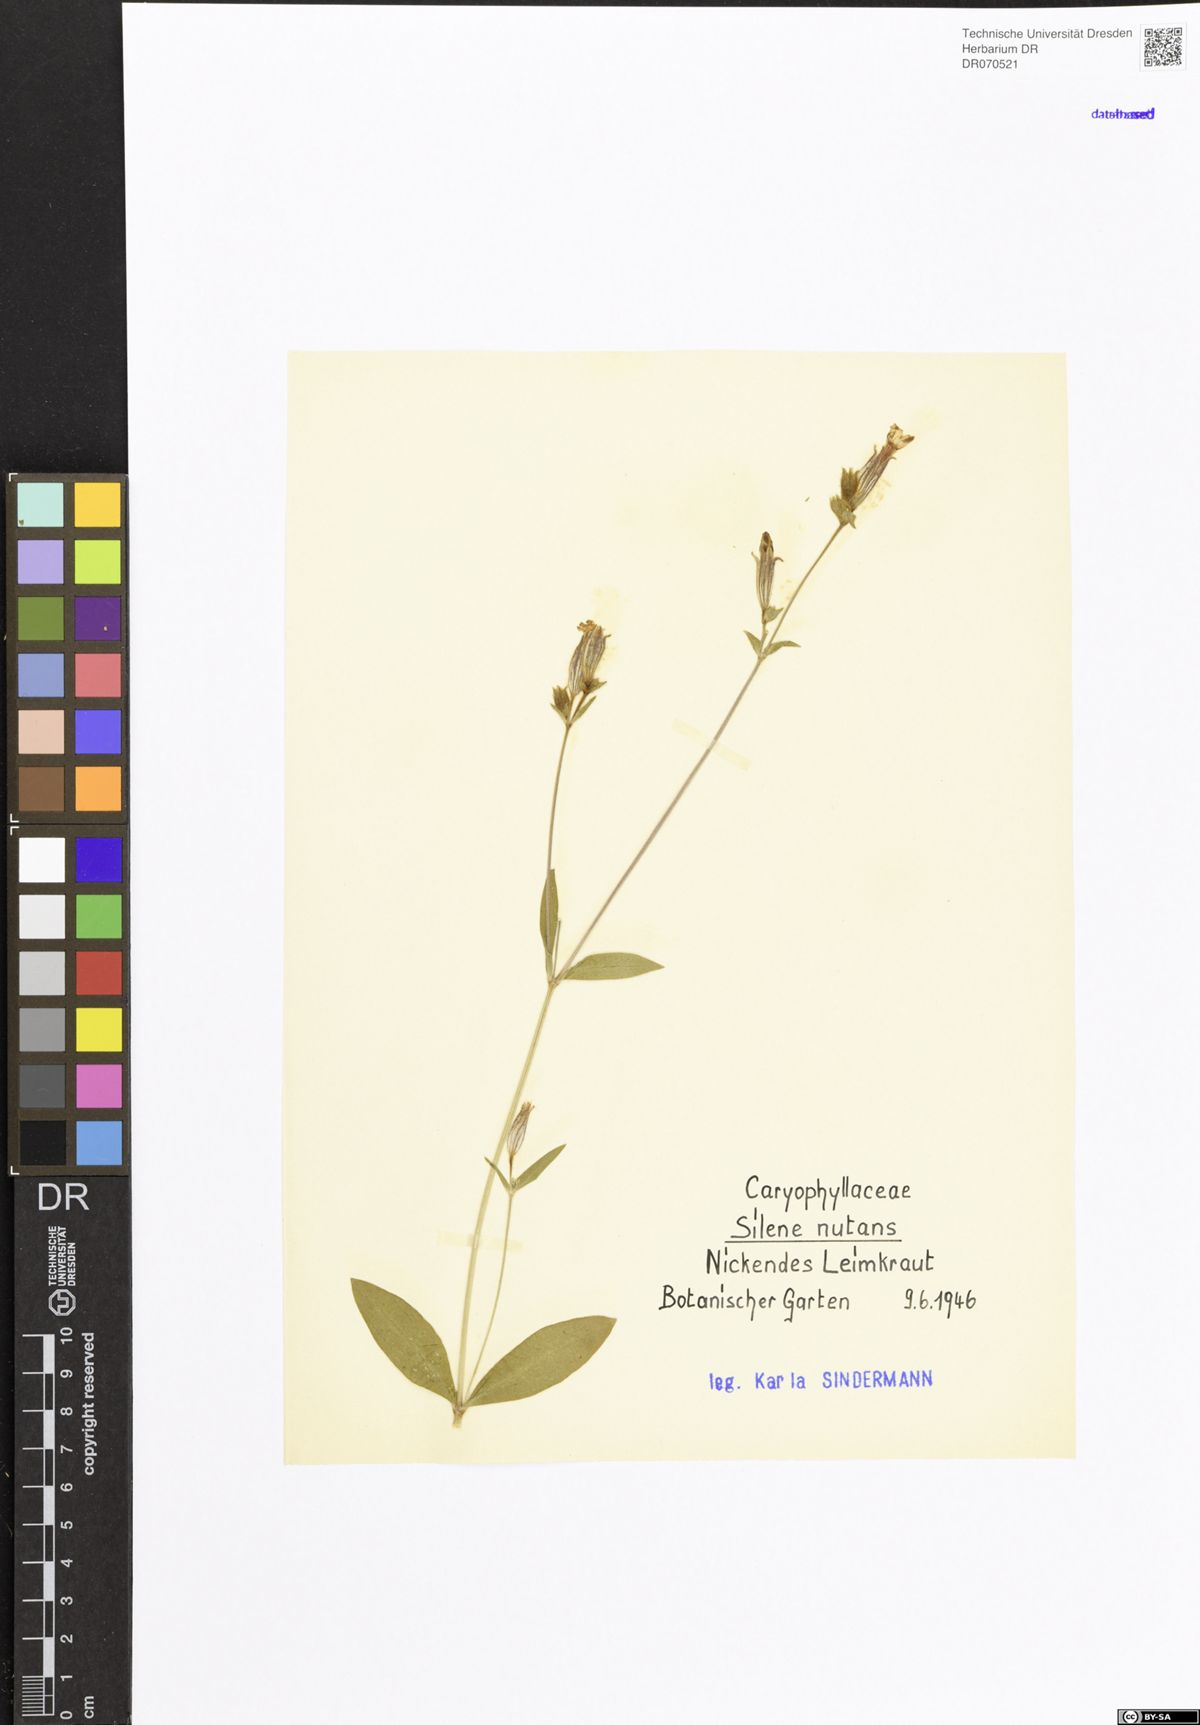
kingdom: Plantae
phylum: Tracheophyta
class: Magnoliopsida
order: Caryophyllales
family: Caryophyllaceae
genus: Silene
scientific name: Silene nutans
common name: Nottingham catchfly
